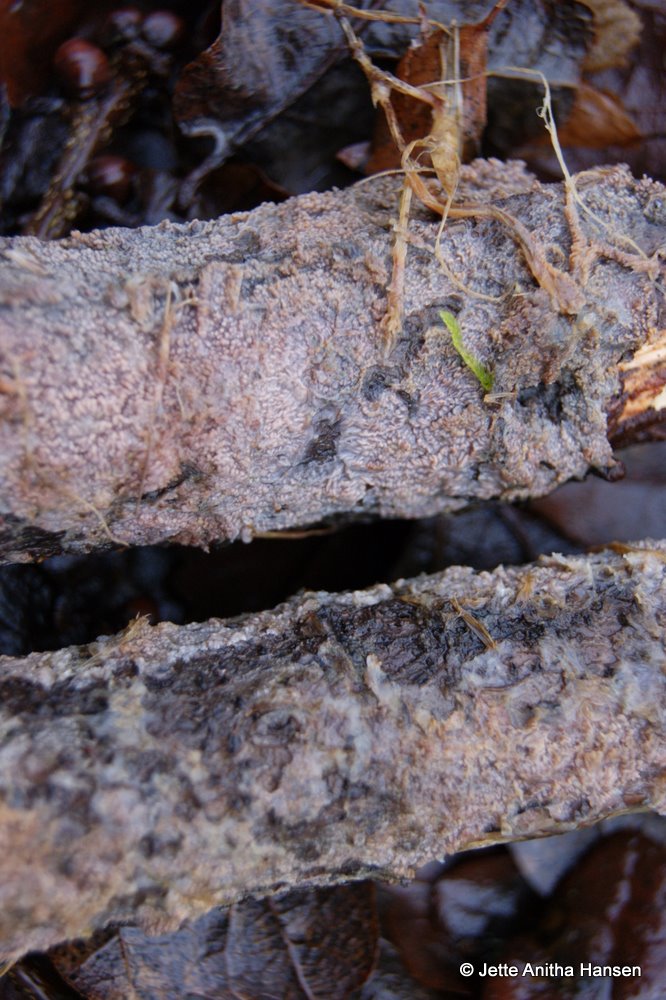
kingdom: Fungi
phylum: Basidiomycota
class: Agaricomycetes
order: Polyporales
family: Meruliaceae
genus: Phlebia
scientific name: Phlebia radiata
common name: stråle-åresvamp
